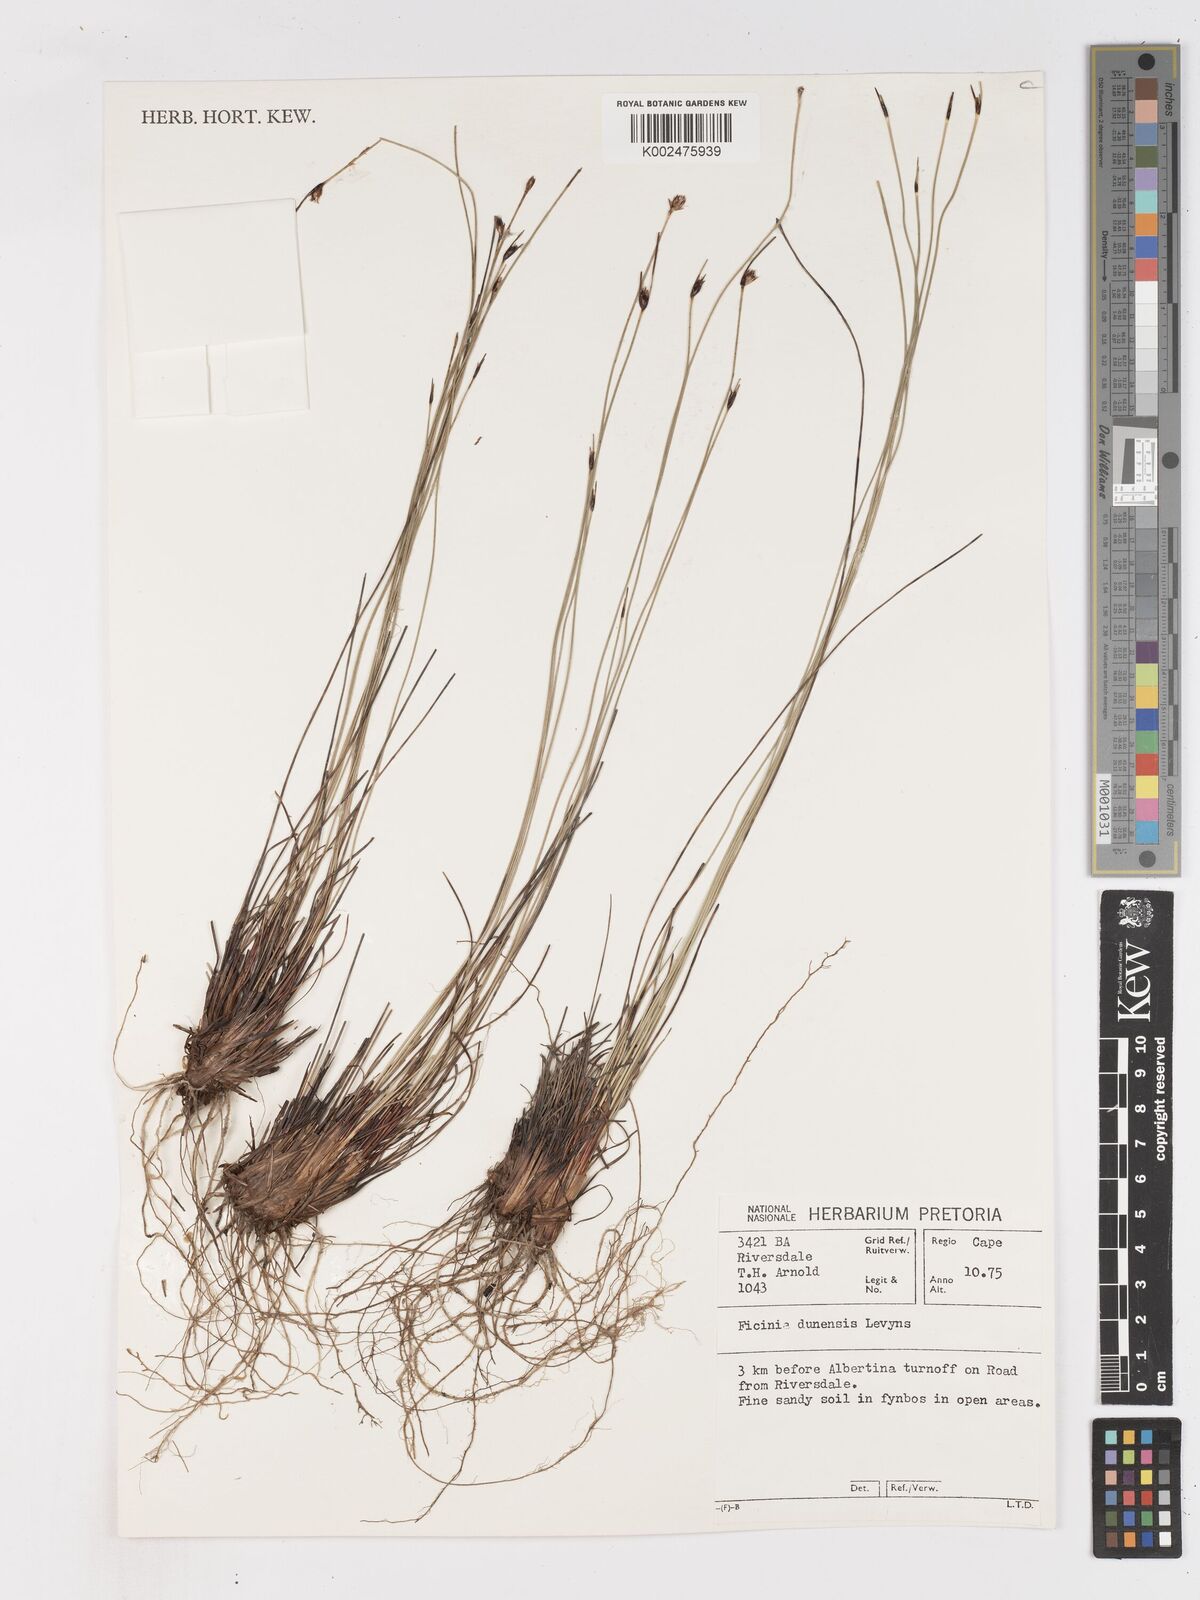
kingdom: Plantae
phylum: Tracheophyta
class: Liliopsida
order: Poales
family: Cyperaceae
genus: Ficinia
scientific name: Ficinia dunensis
